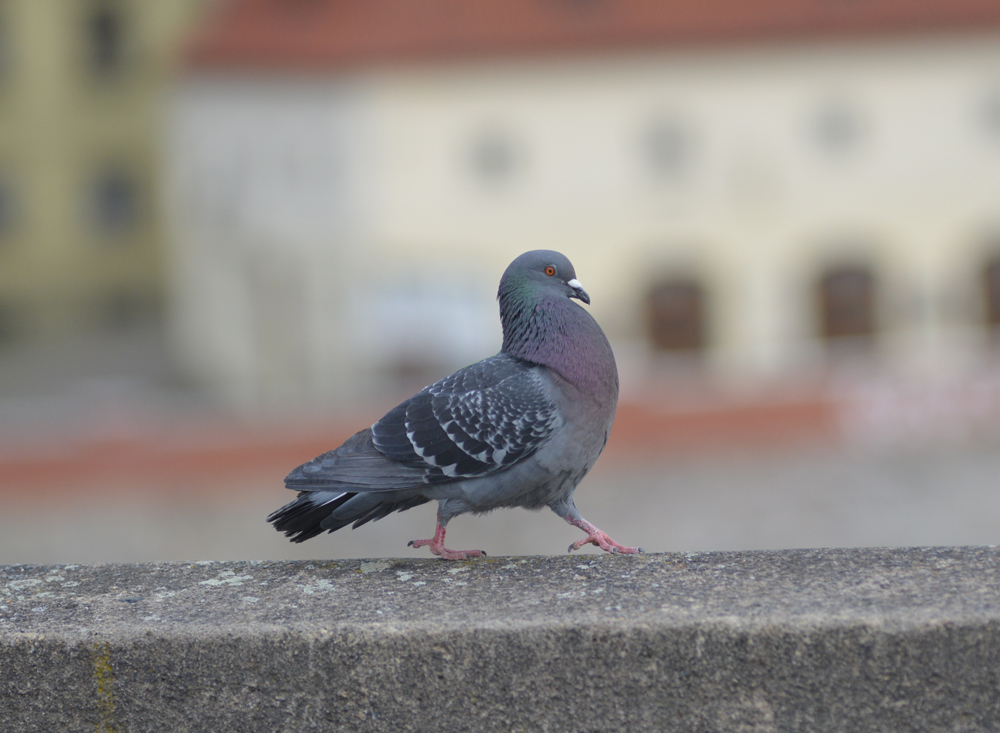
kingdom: Animalia
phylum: Chordata
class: Aves
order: Columbiformes
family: Columbidae
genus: Columba
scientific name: Columba livia
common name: Rock pigeon
